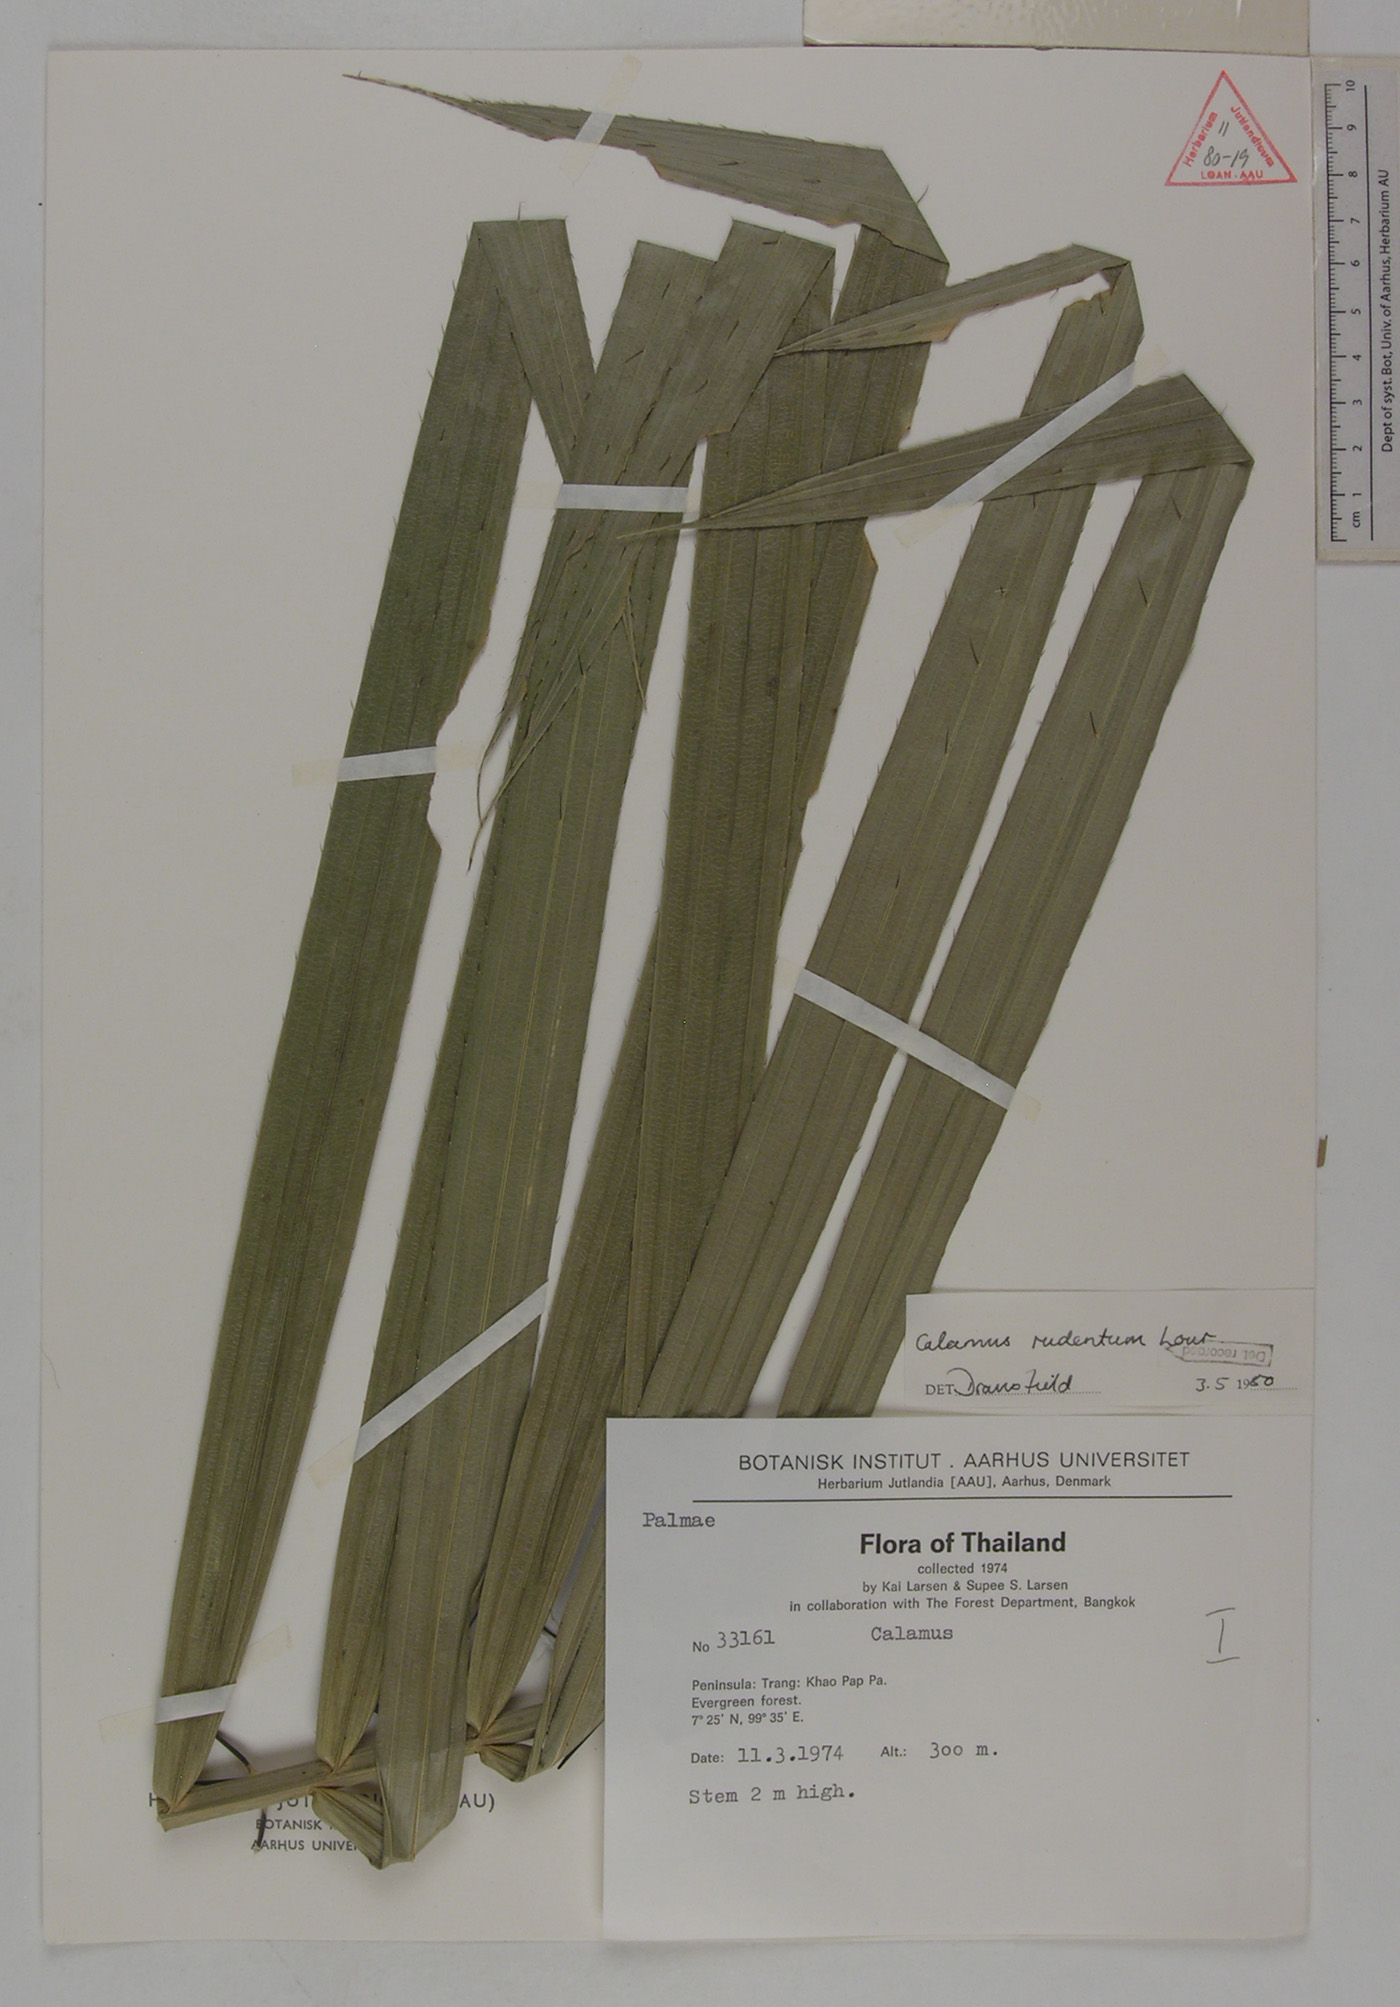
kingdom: Plantae
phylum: Tracheophyta
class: Liliopsida
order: Arecales
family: Arecaceae
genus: Calamus
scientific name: Calamus rudentum
